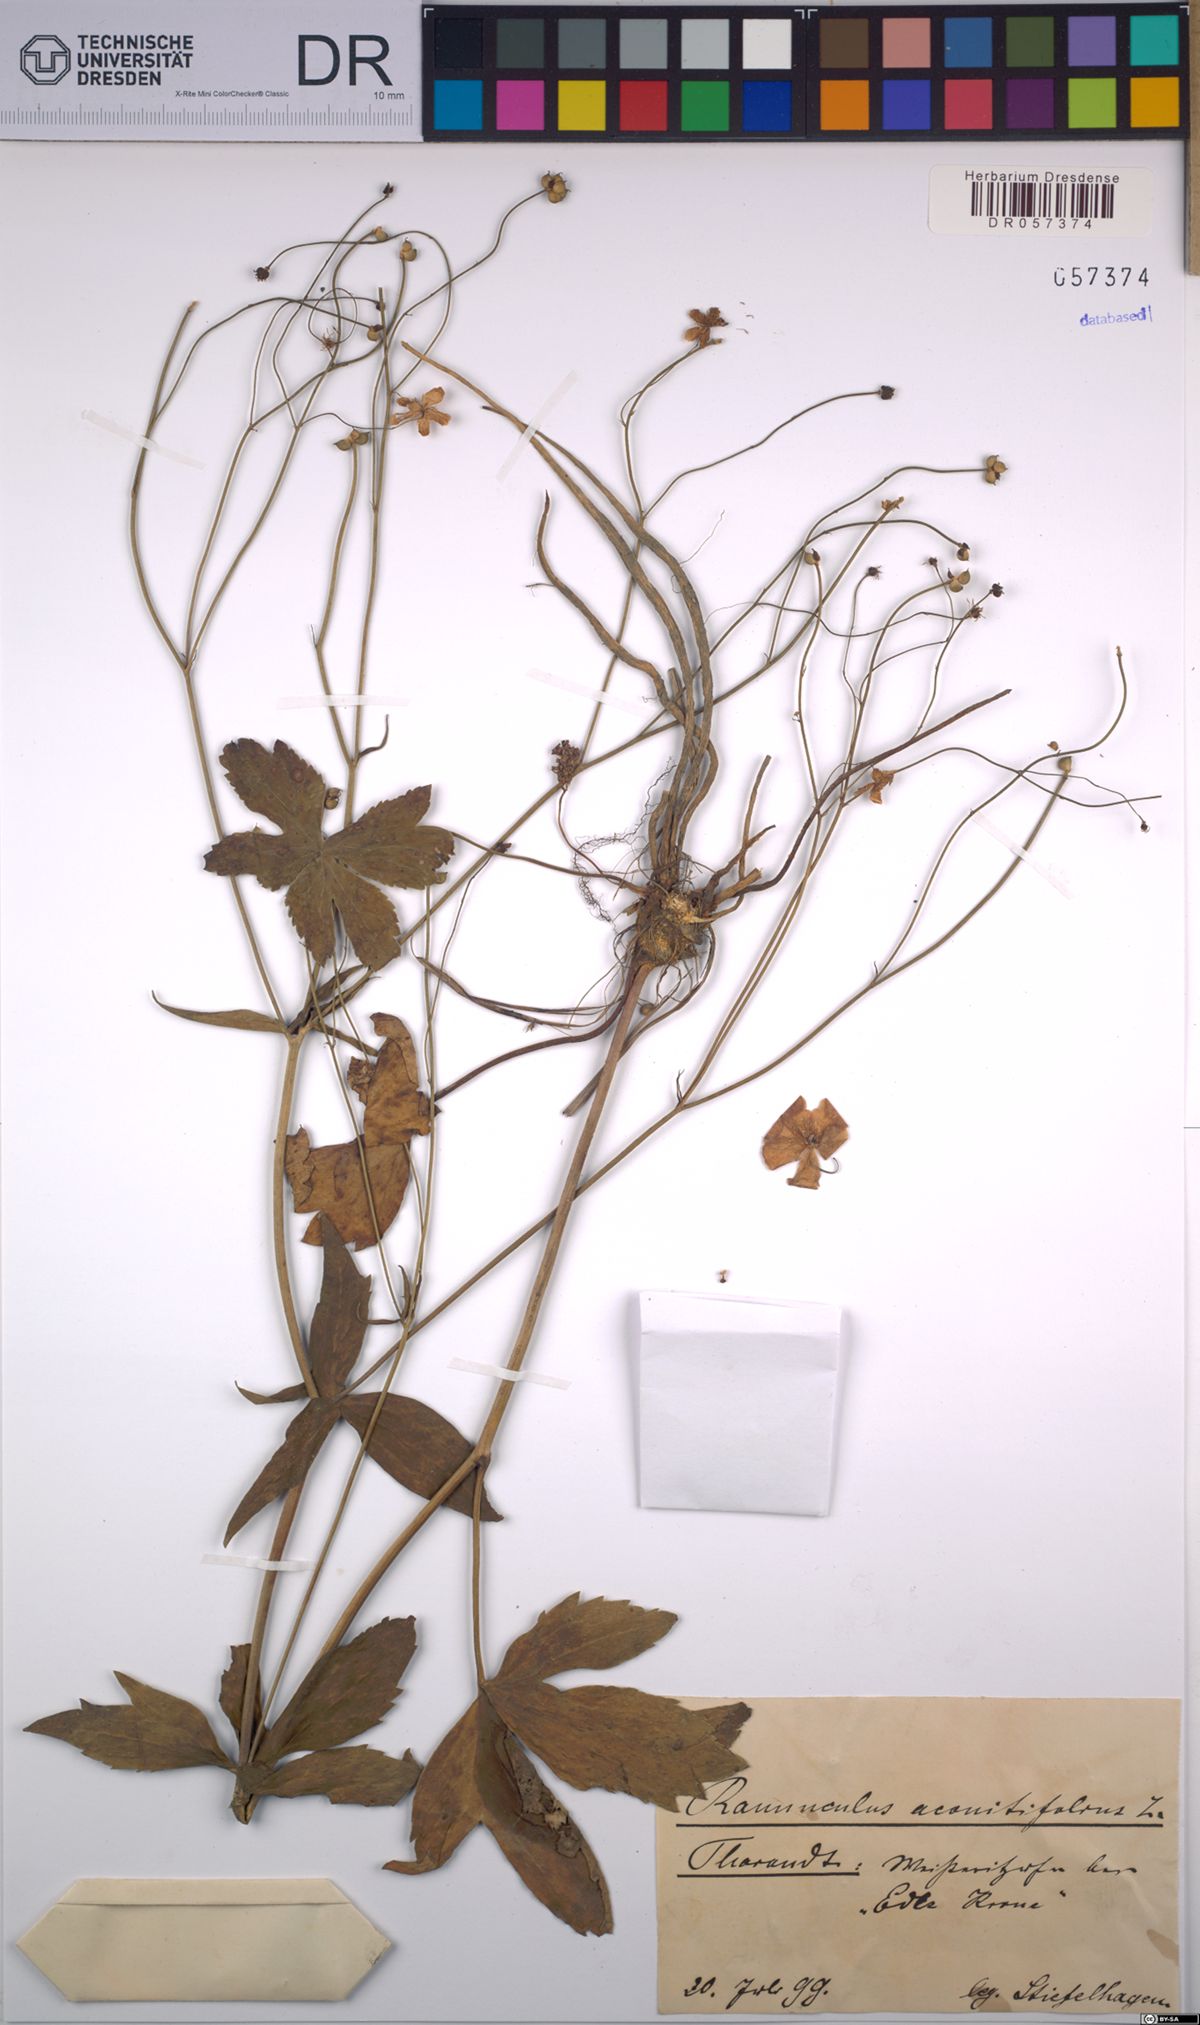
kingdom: Plantae
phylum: Tracheophyta
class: Magnoliopsida
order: Ranunculales
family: Ranunculaceae
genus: Ranunculus
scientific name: Ranunculus aconitifolius
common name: Aconite-leaved buttercup
